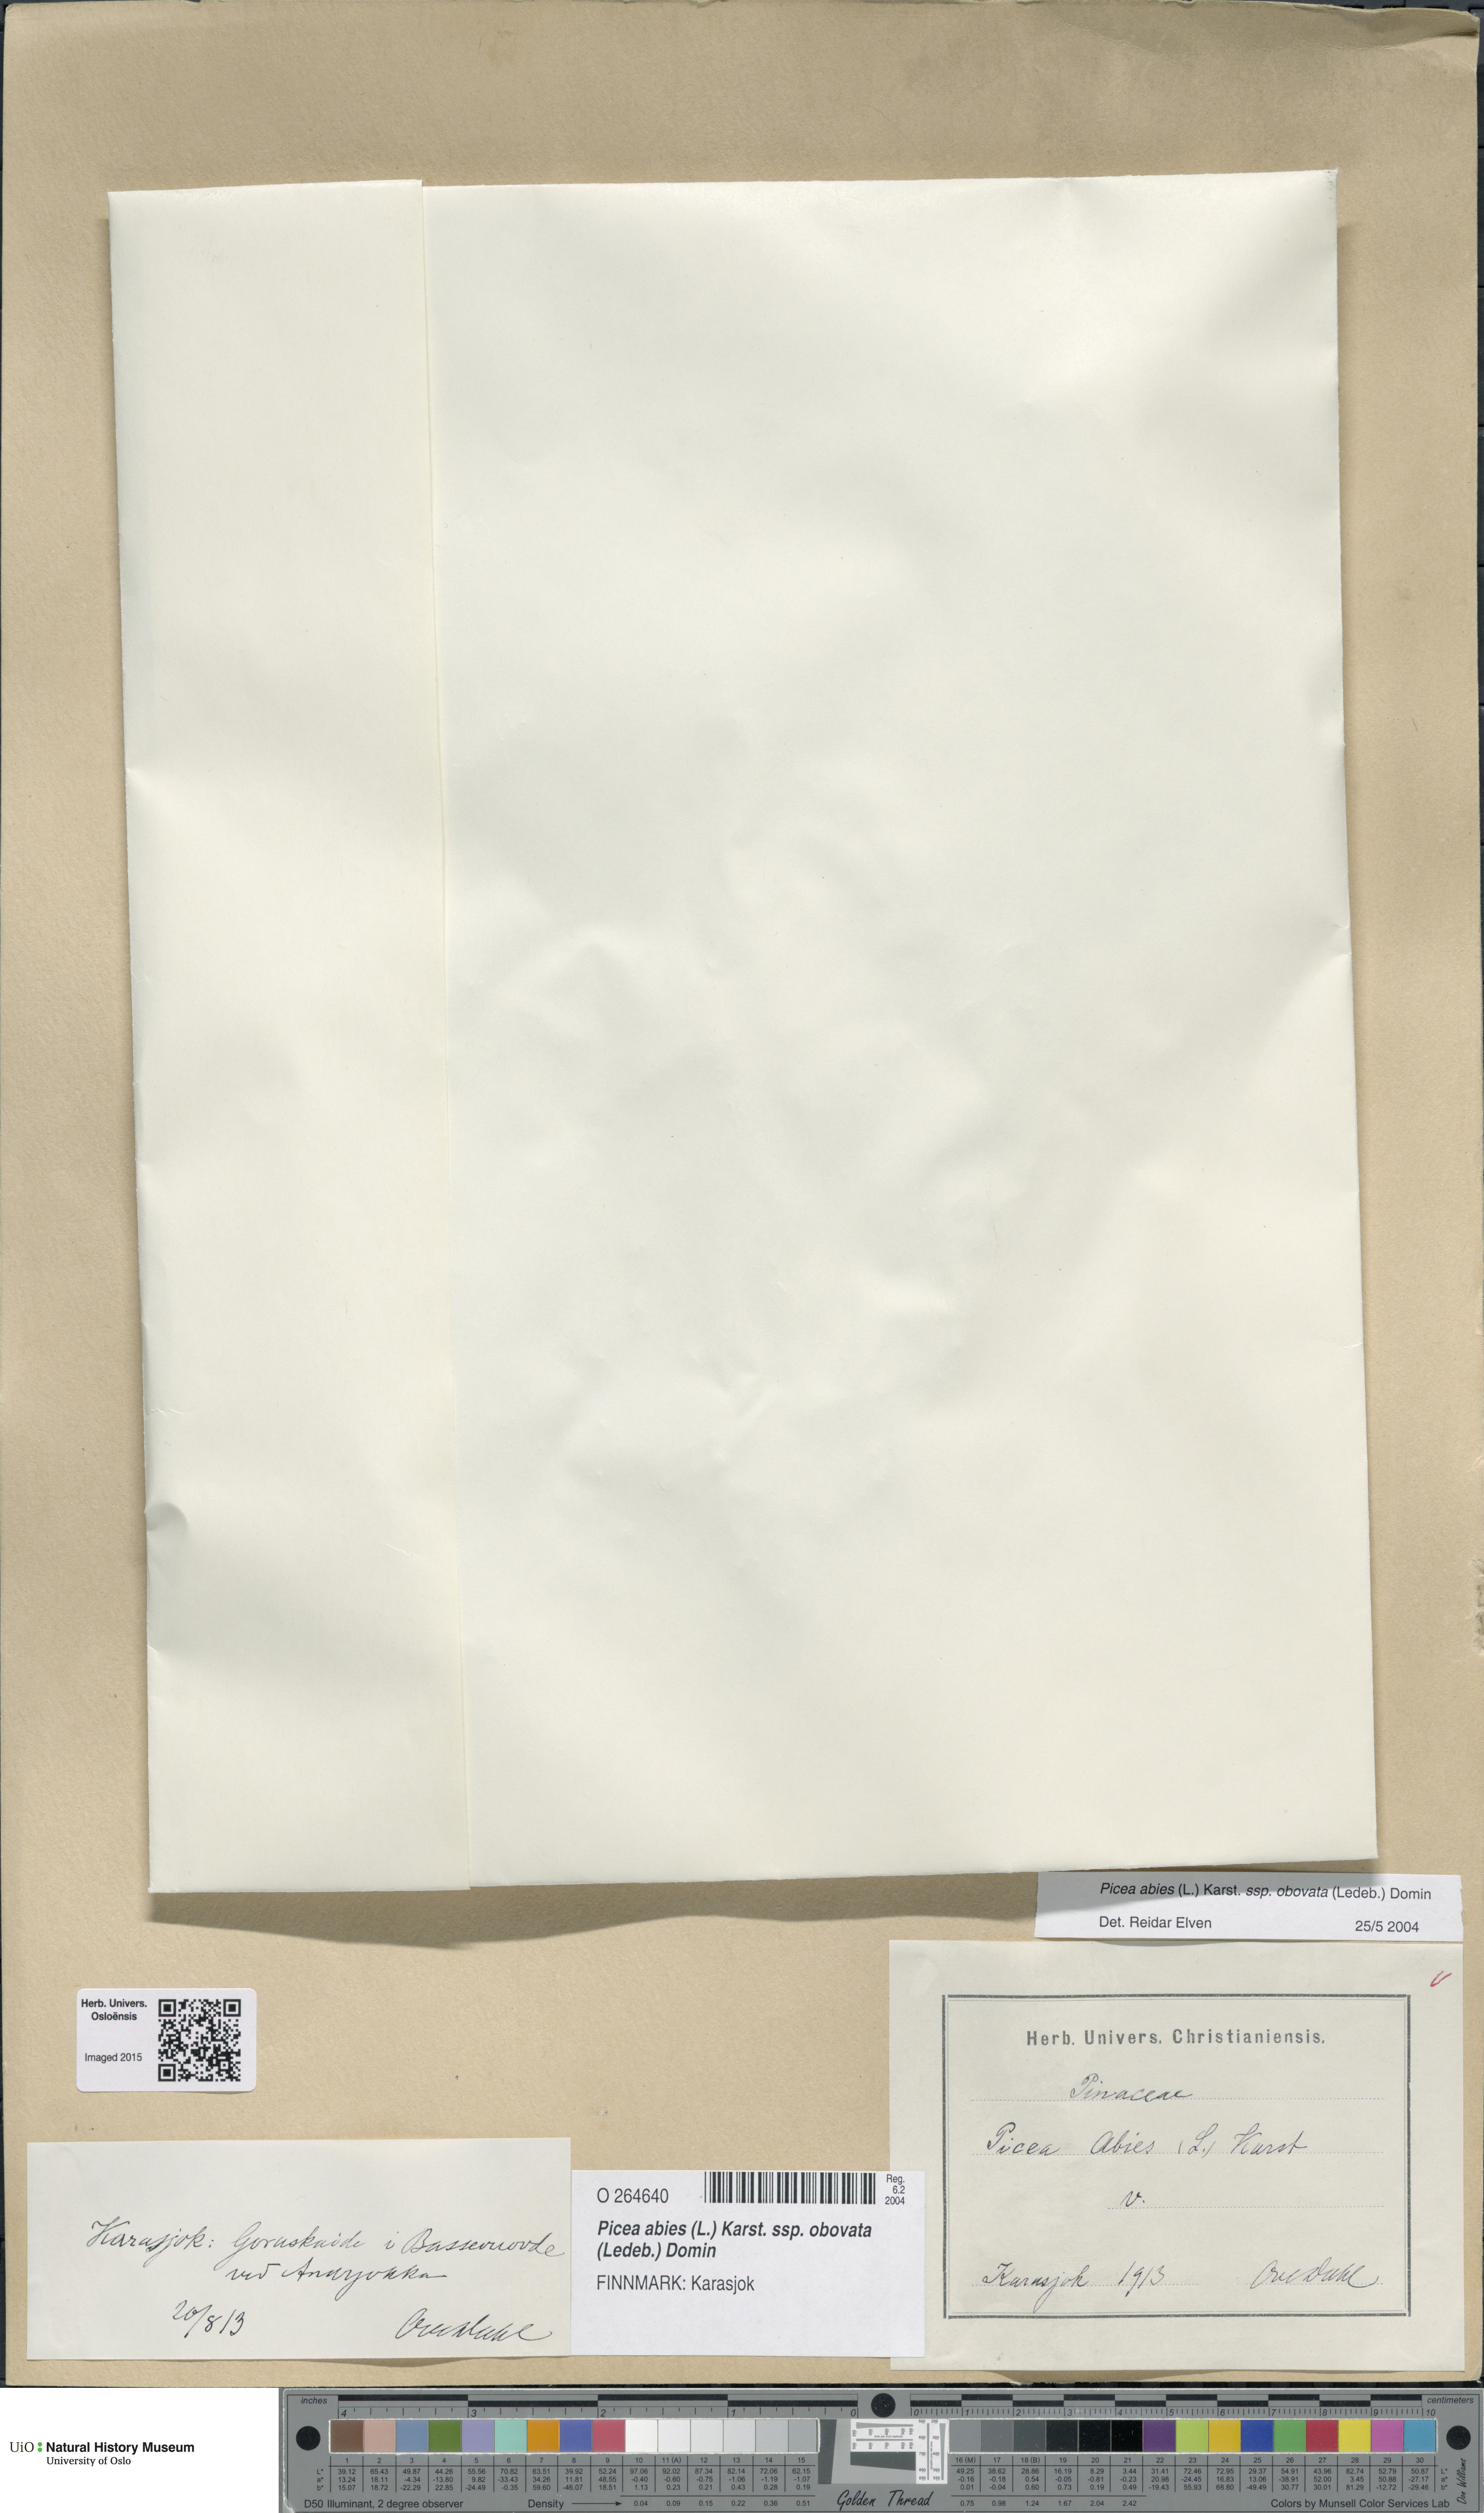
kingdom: Plantae
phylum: Tracheophyta
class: Pinopsida
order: Pinales
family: Pinaceae
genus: Picea
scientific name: Picea obovata
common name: Siberian spruce
